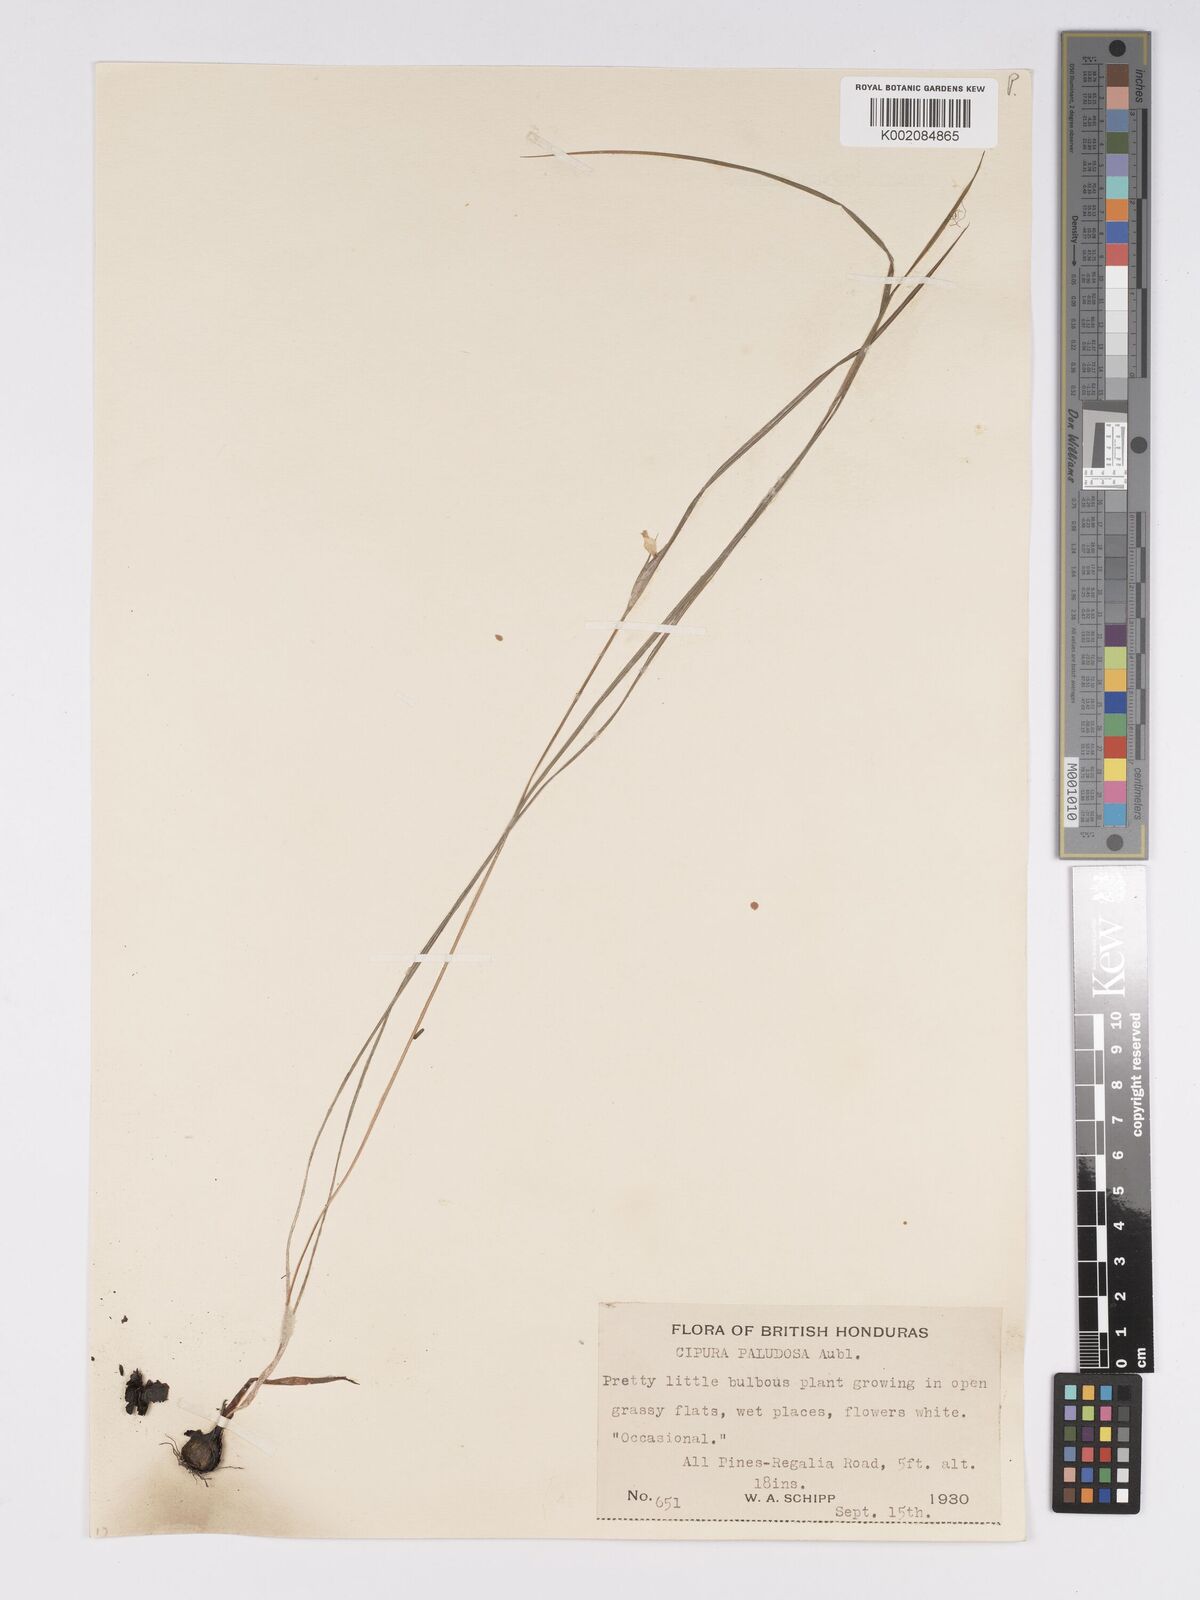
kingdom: Plantae
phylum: Tracheophyta
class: Liliopsida
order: Asparagales
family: Iridaceae
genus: Cipura
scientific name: Cipura paludosa
